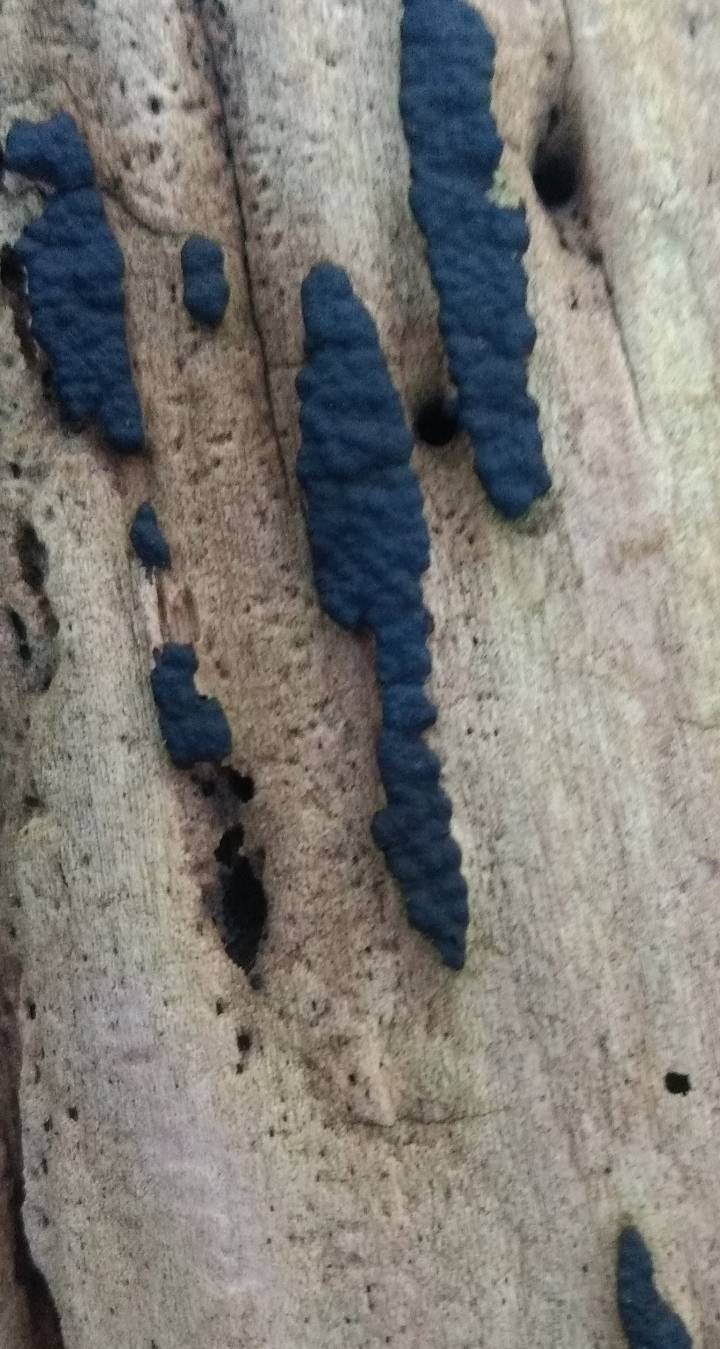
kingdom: Fungi
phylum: Ascomycota
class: Sordariomycetes
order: Xylariales
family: Xylariaceae
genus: Nemania
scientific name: Nemania
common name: kuldyne
